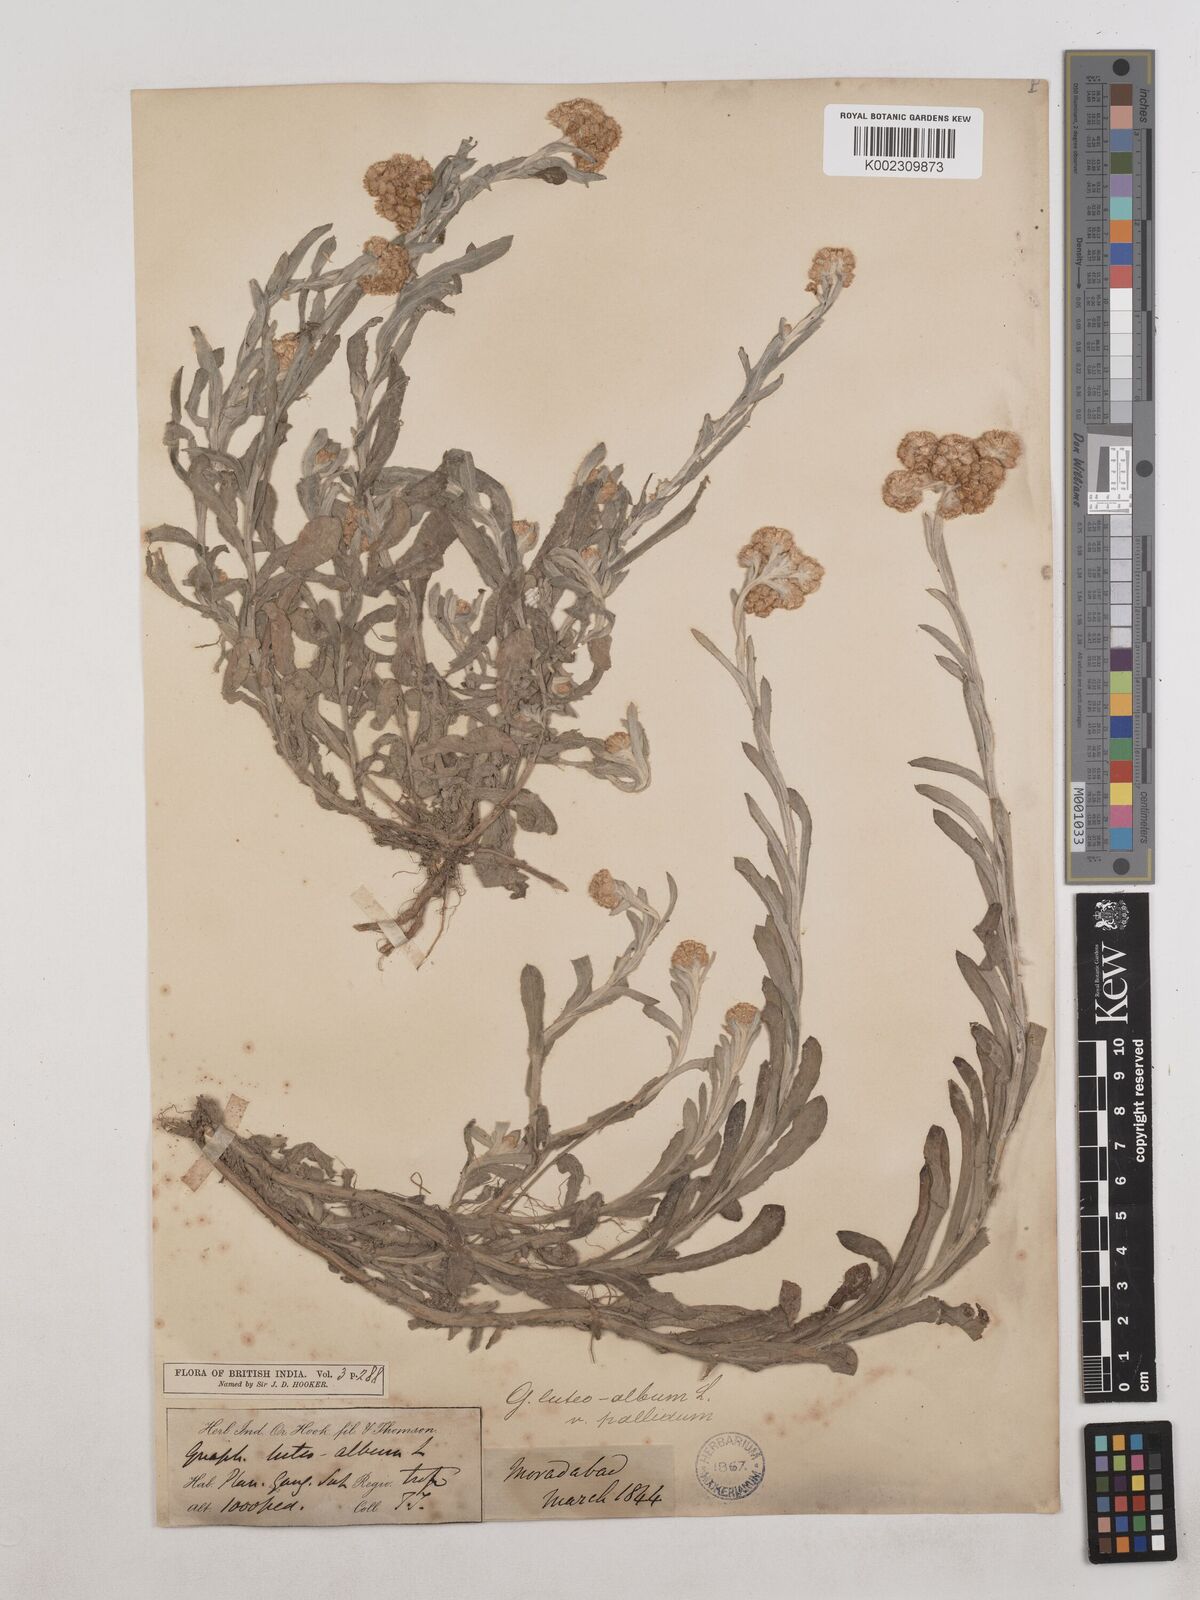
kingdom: Plantae
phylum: Tracheophyta
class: Magnoliopsida
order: Asterales
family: Asteraceae
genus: Helichrysum
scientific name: Helichrysum luteoalbum
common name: Daisy
